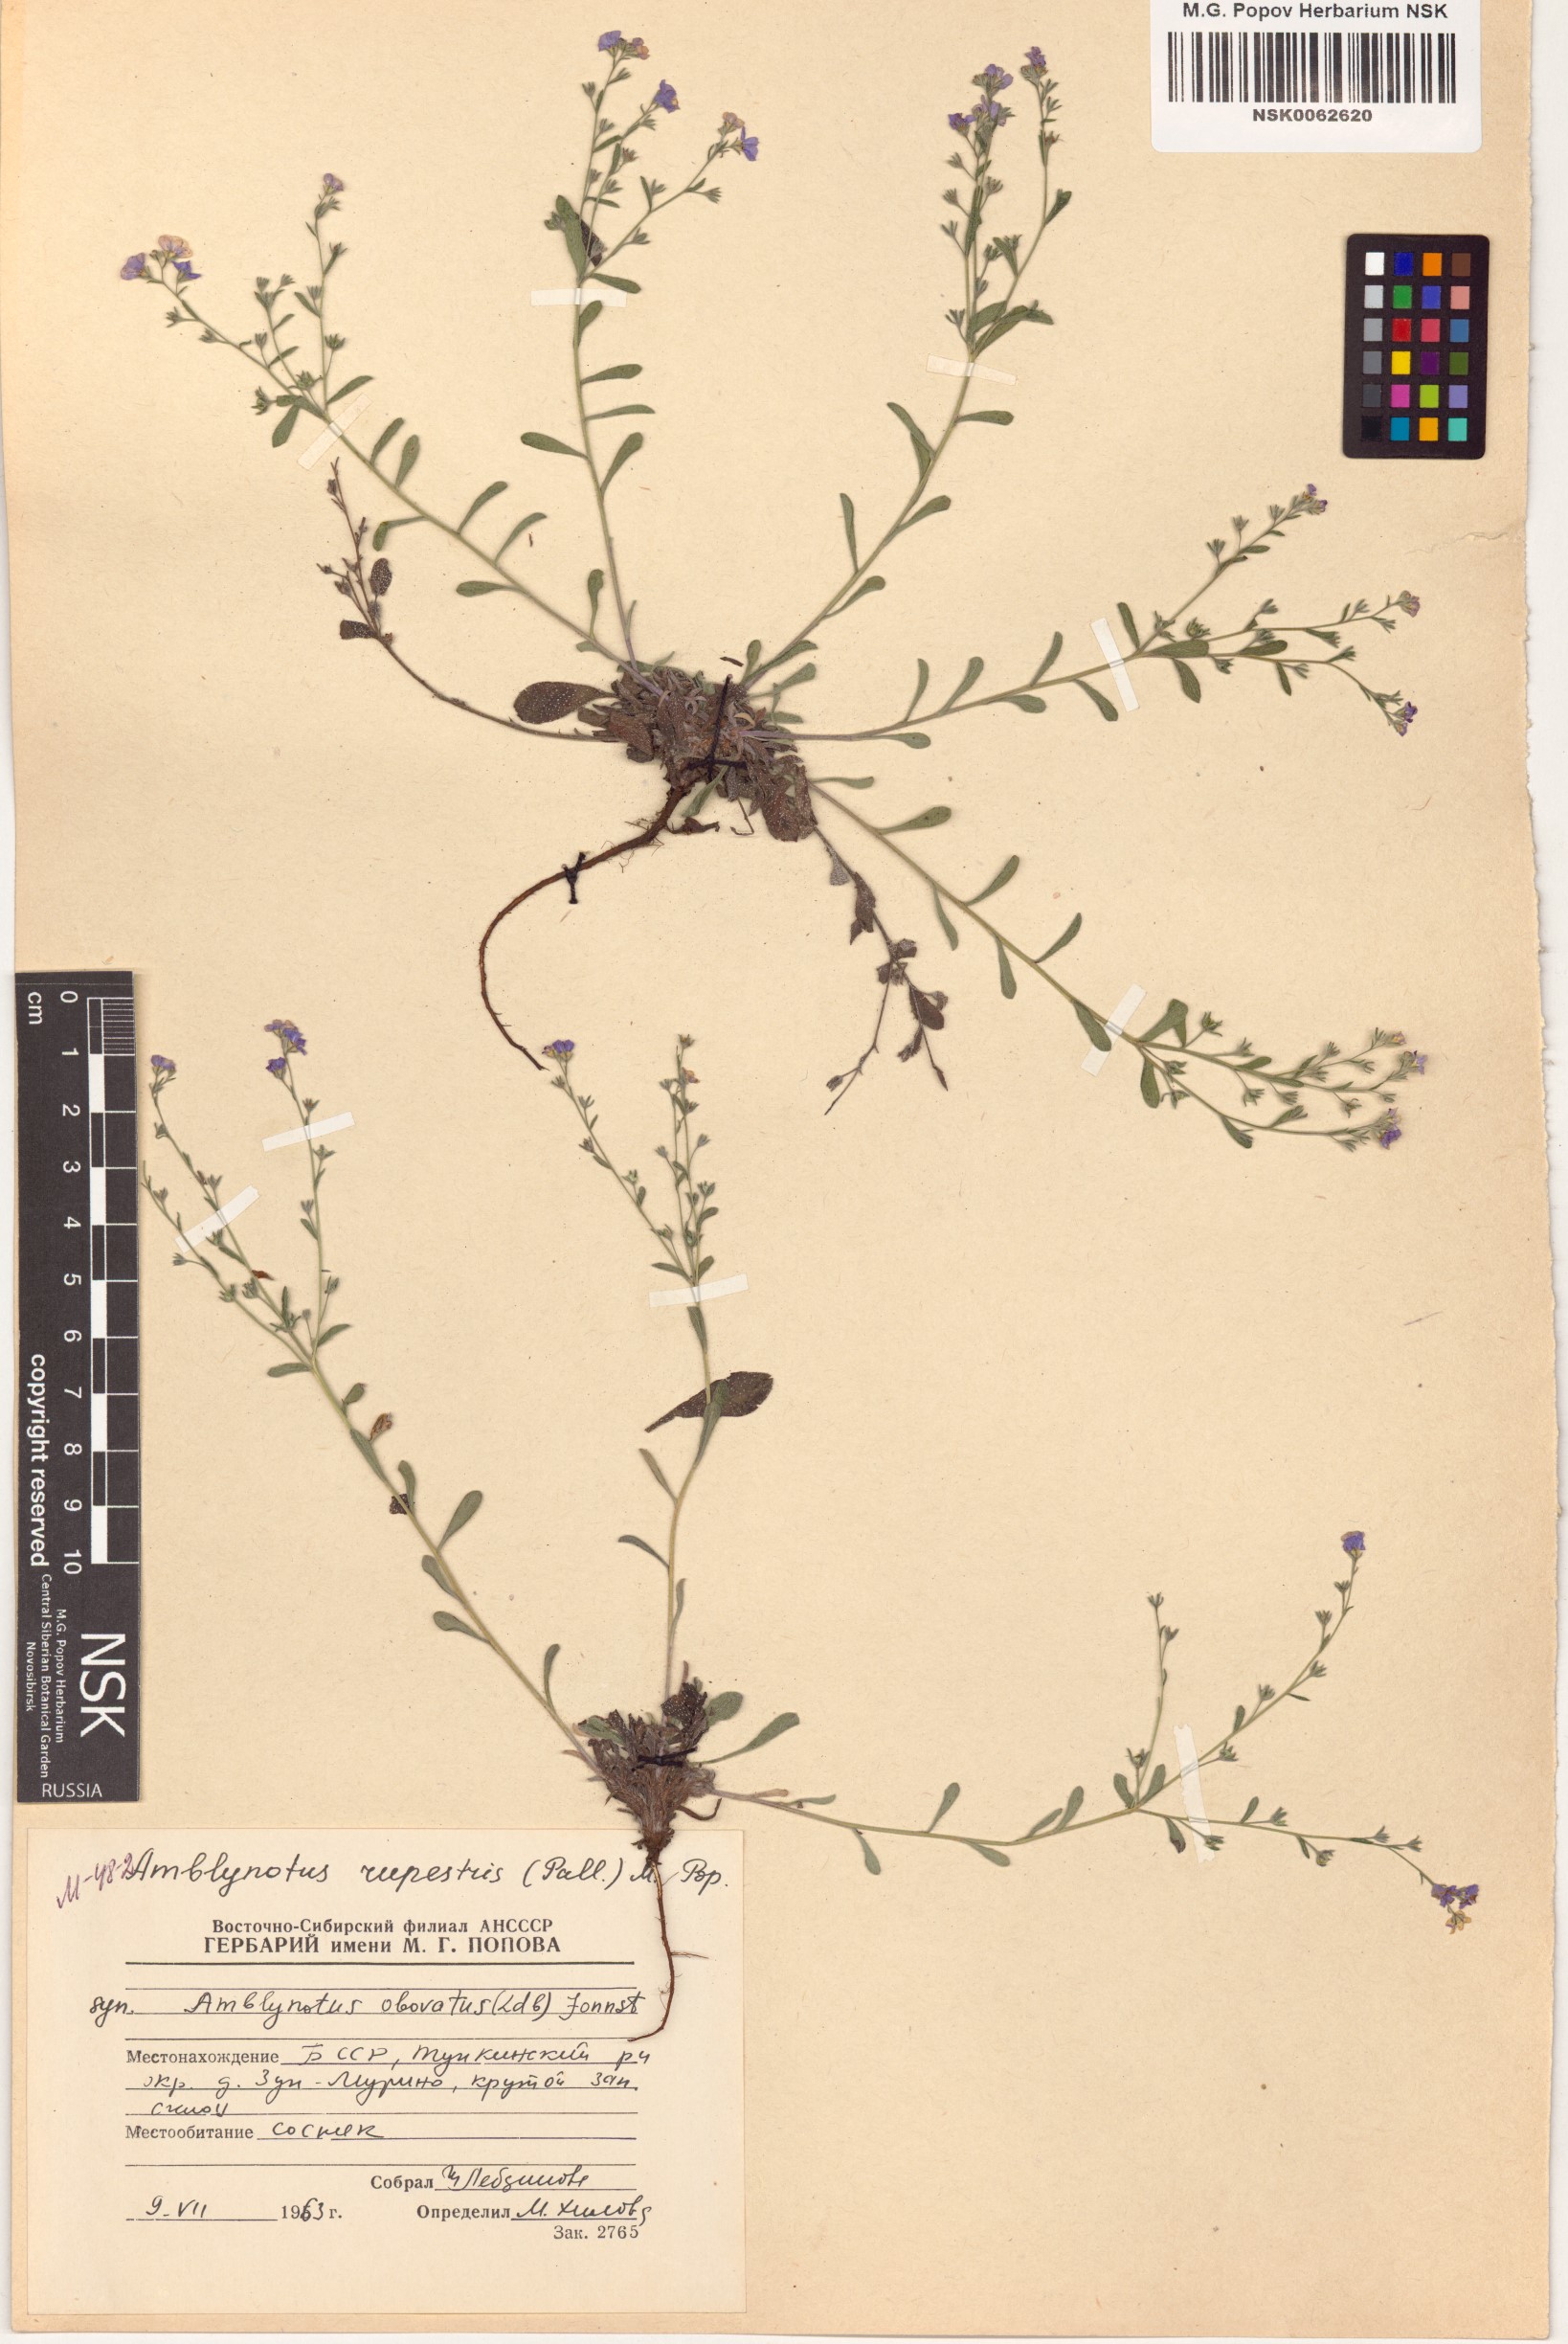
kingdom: Plantae
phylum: Tracheophyta
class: Magnoliopsida
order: Boraginales
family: Boraginaceae
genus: Eritrichium
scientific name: Eritrichium rupestre
